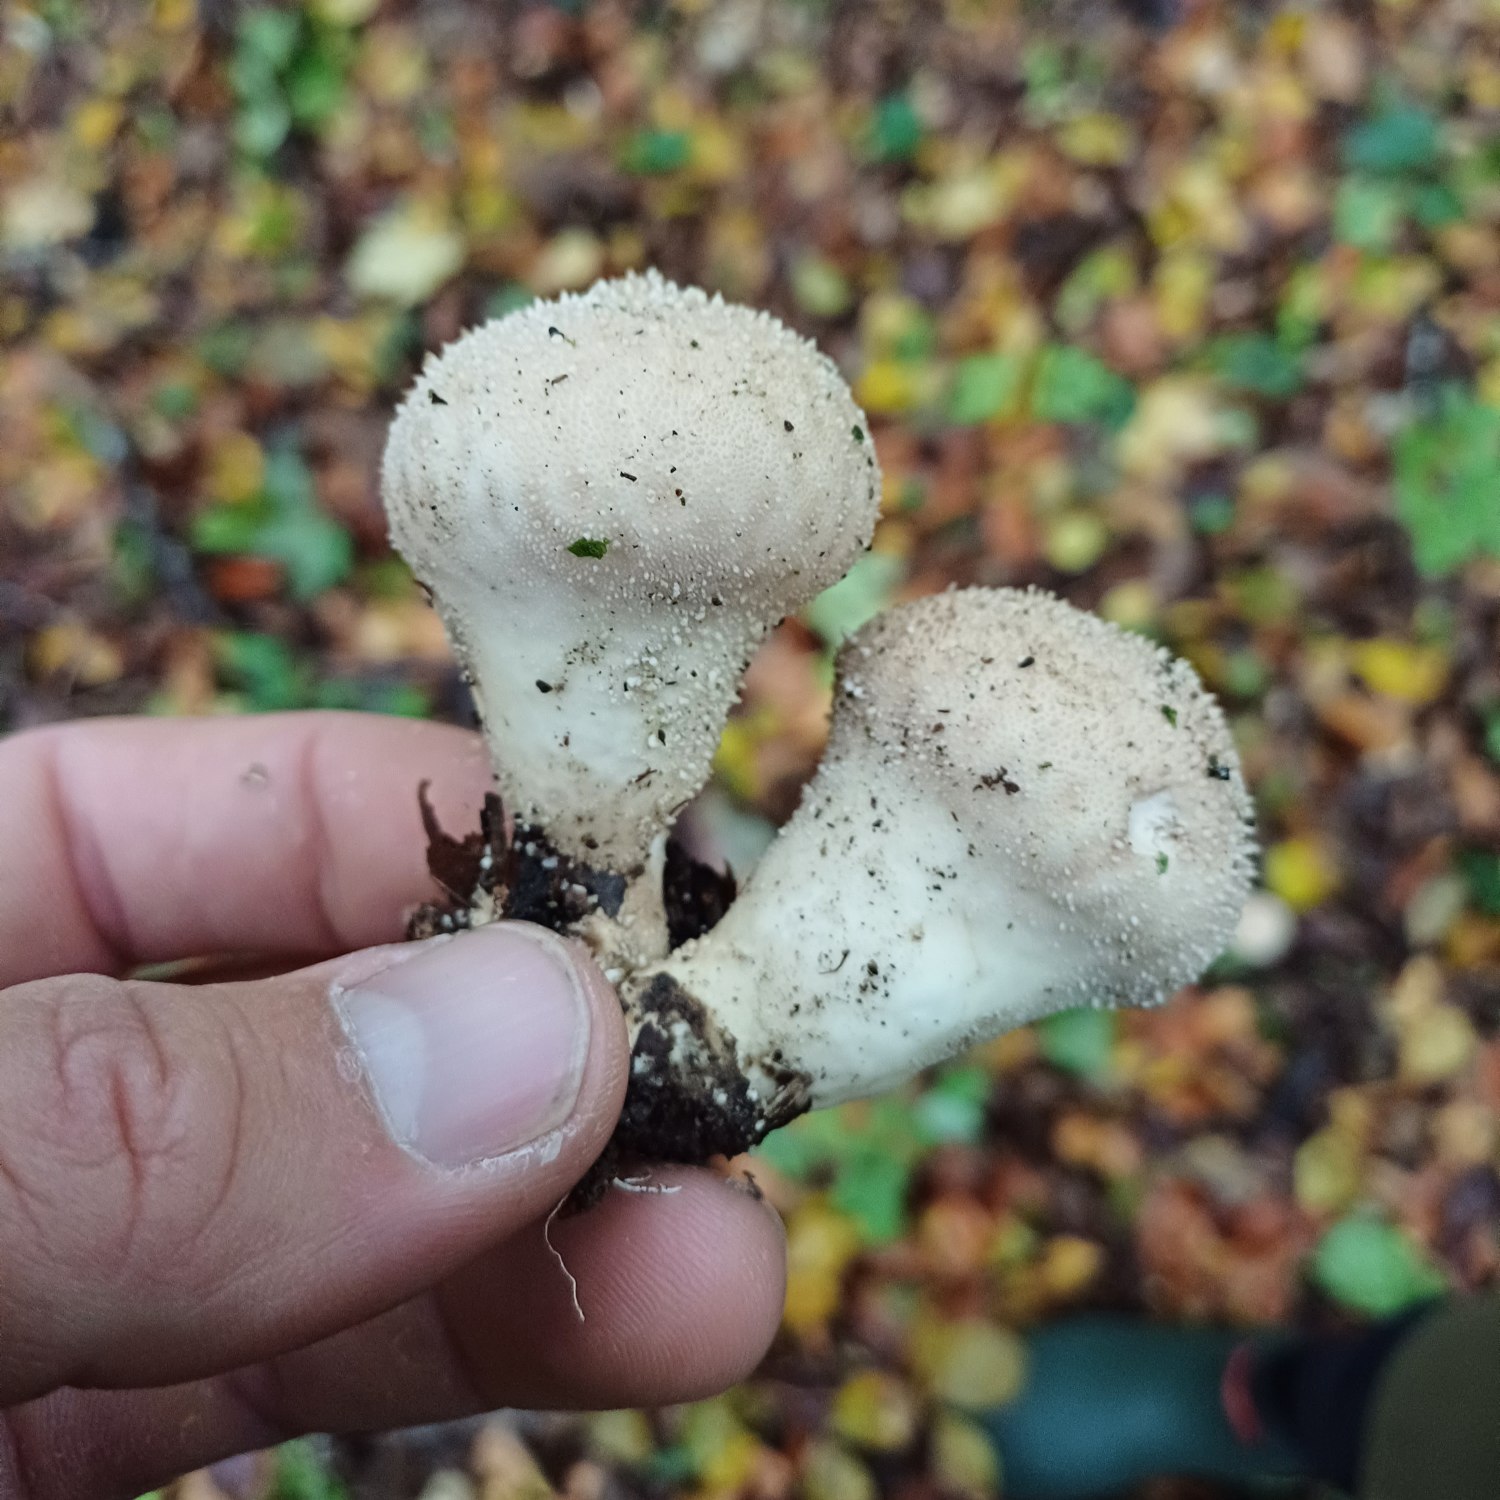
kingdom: Fungi
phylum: Basidiomycota
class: Agaricomycetes
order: Agaricales
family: Lycoperdaceae
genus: Lycoperdon
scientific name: Lycoperdon perlatum
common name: Krystal-støvbold
